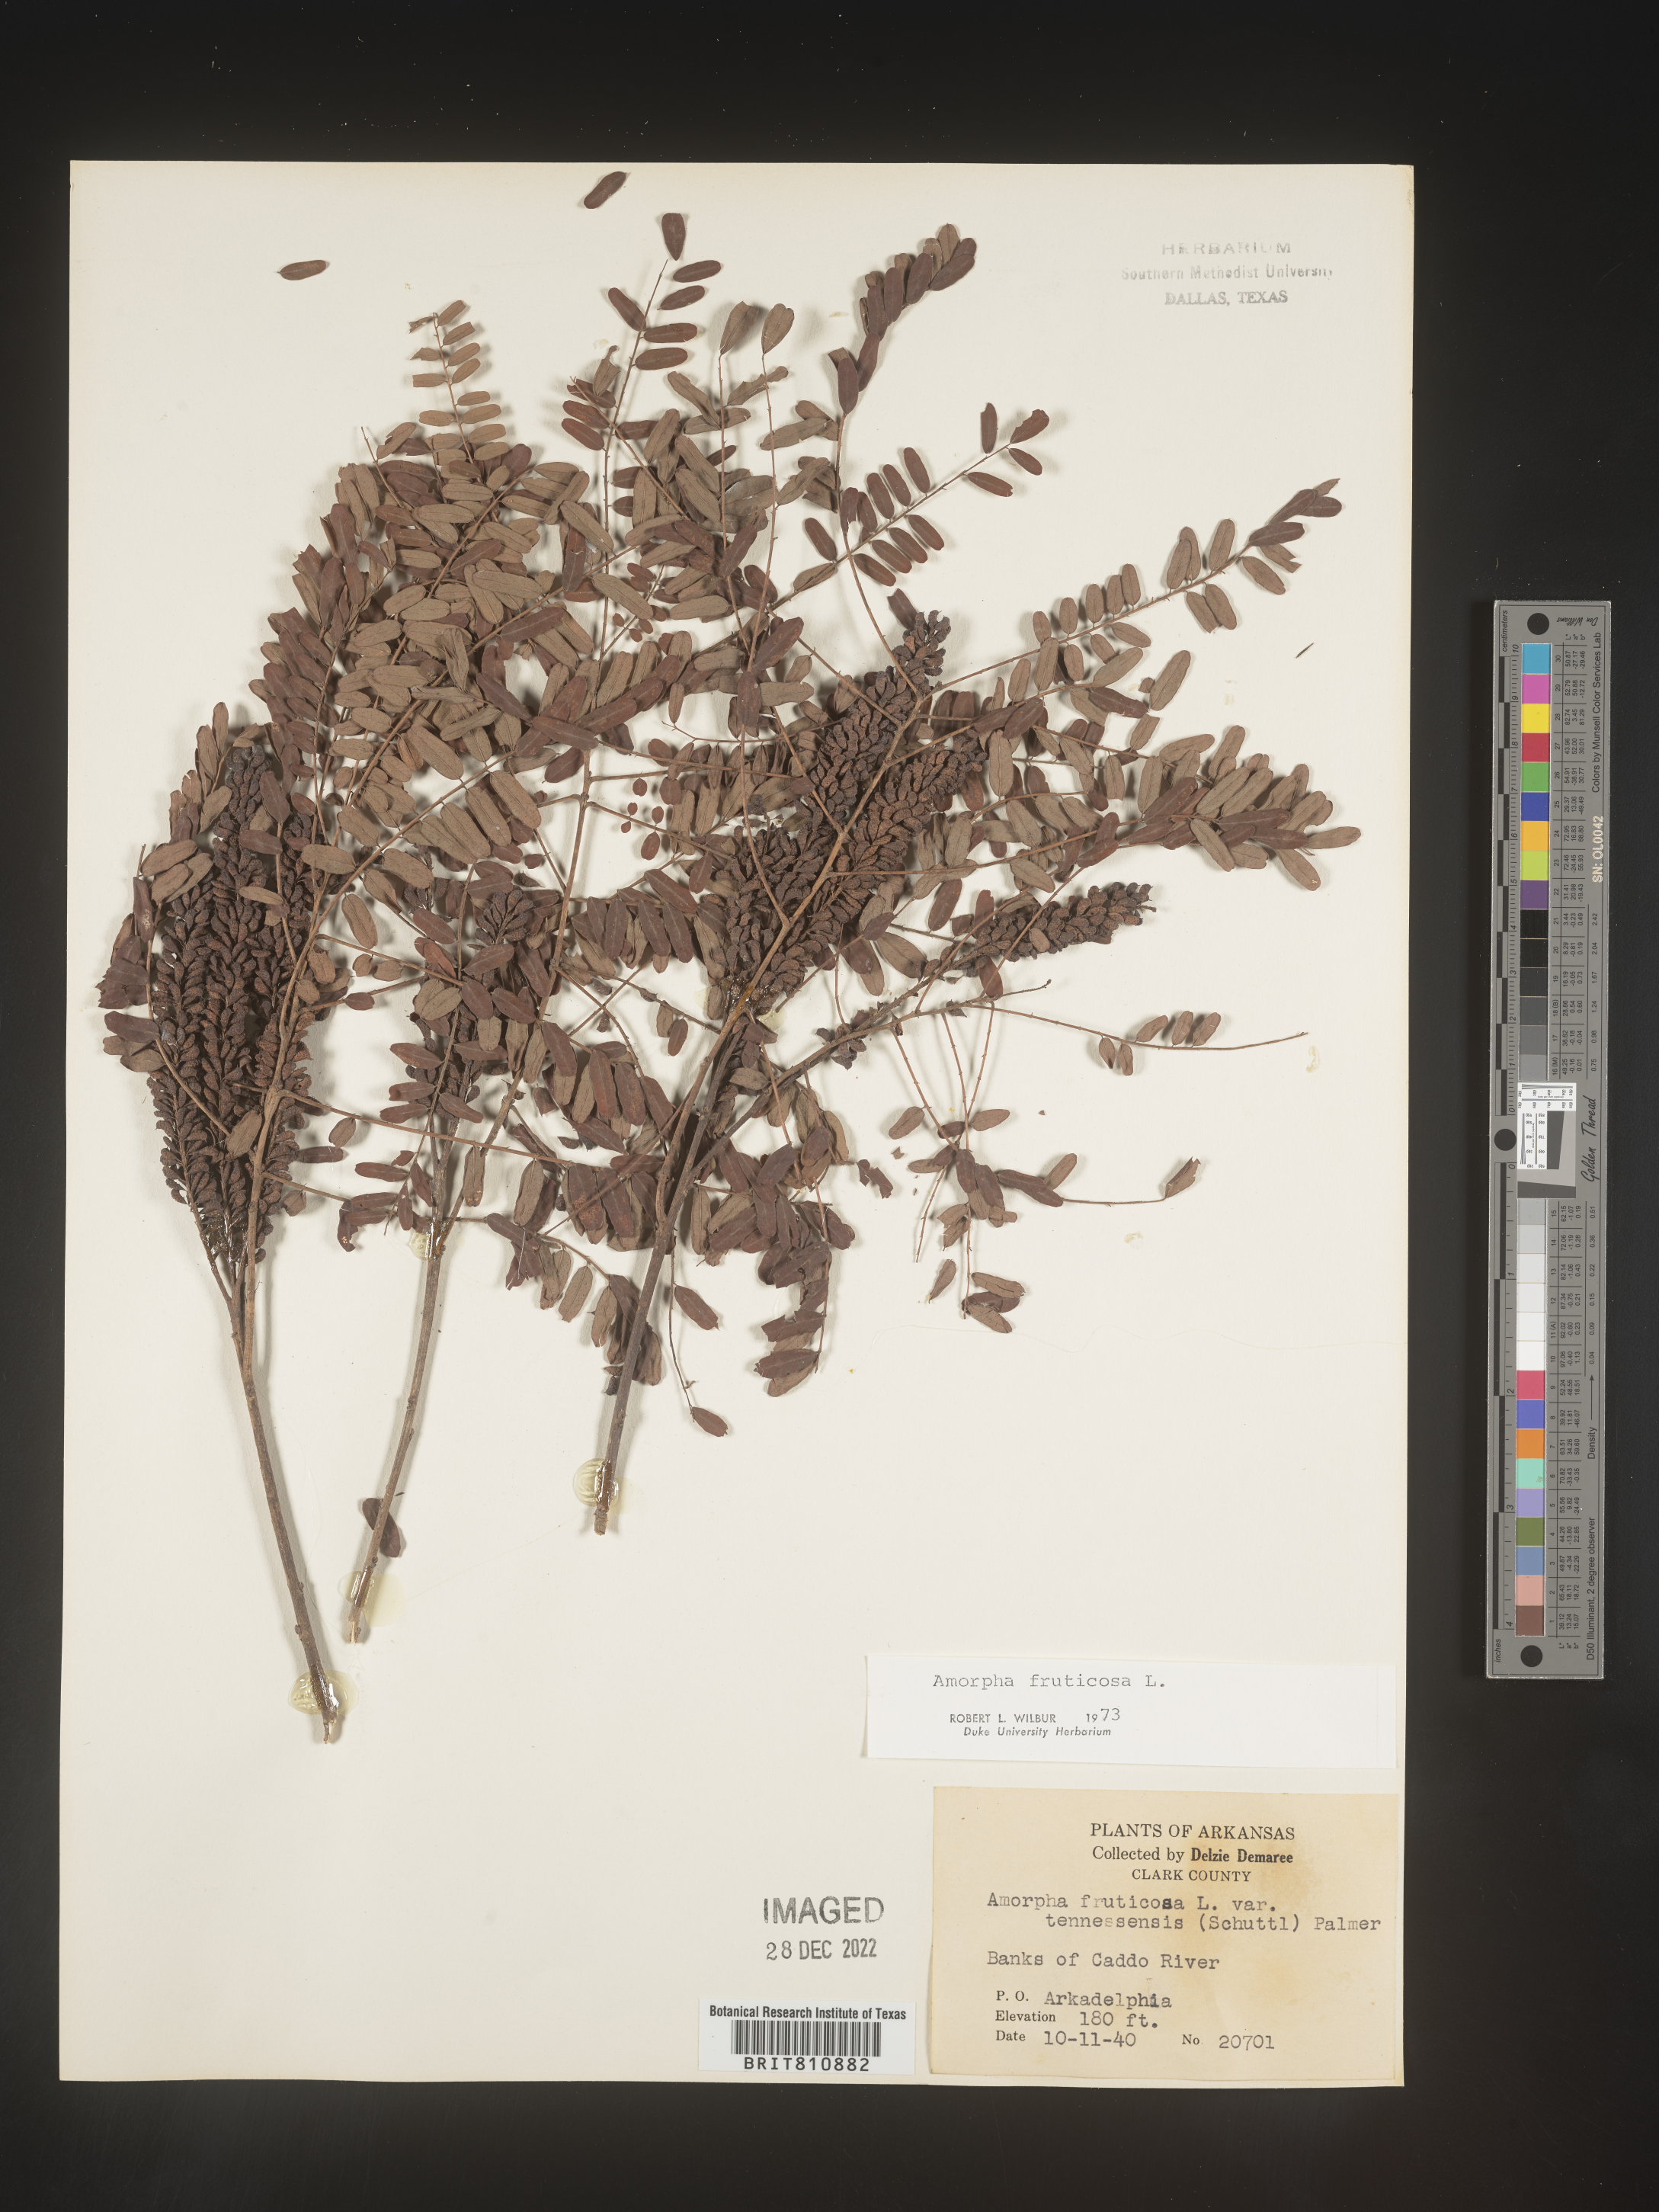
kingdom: Plantae
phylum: Tracheophyta
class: Magnoliopsida
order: Fabales
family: Fabaceae
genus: Amorpha
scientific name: Amorpha fruticosa
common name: False indigo
